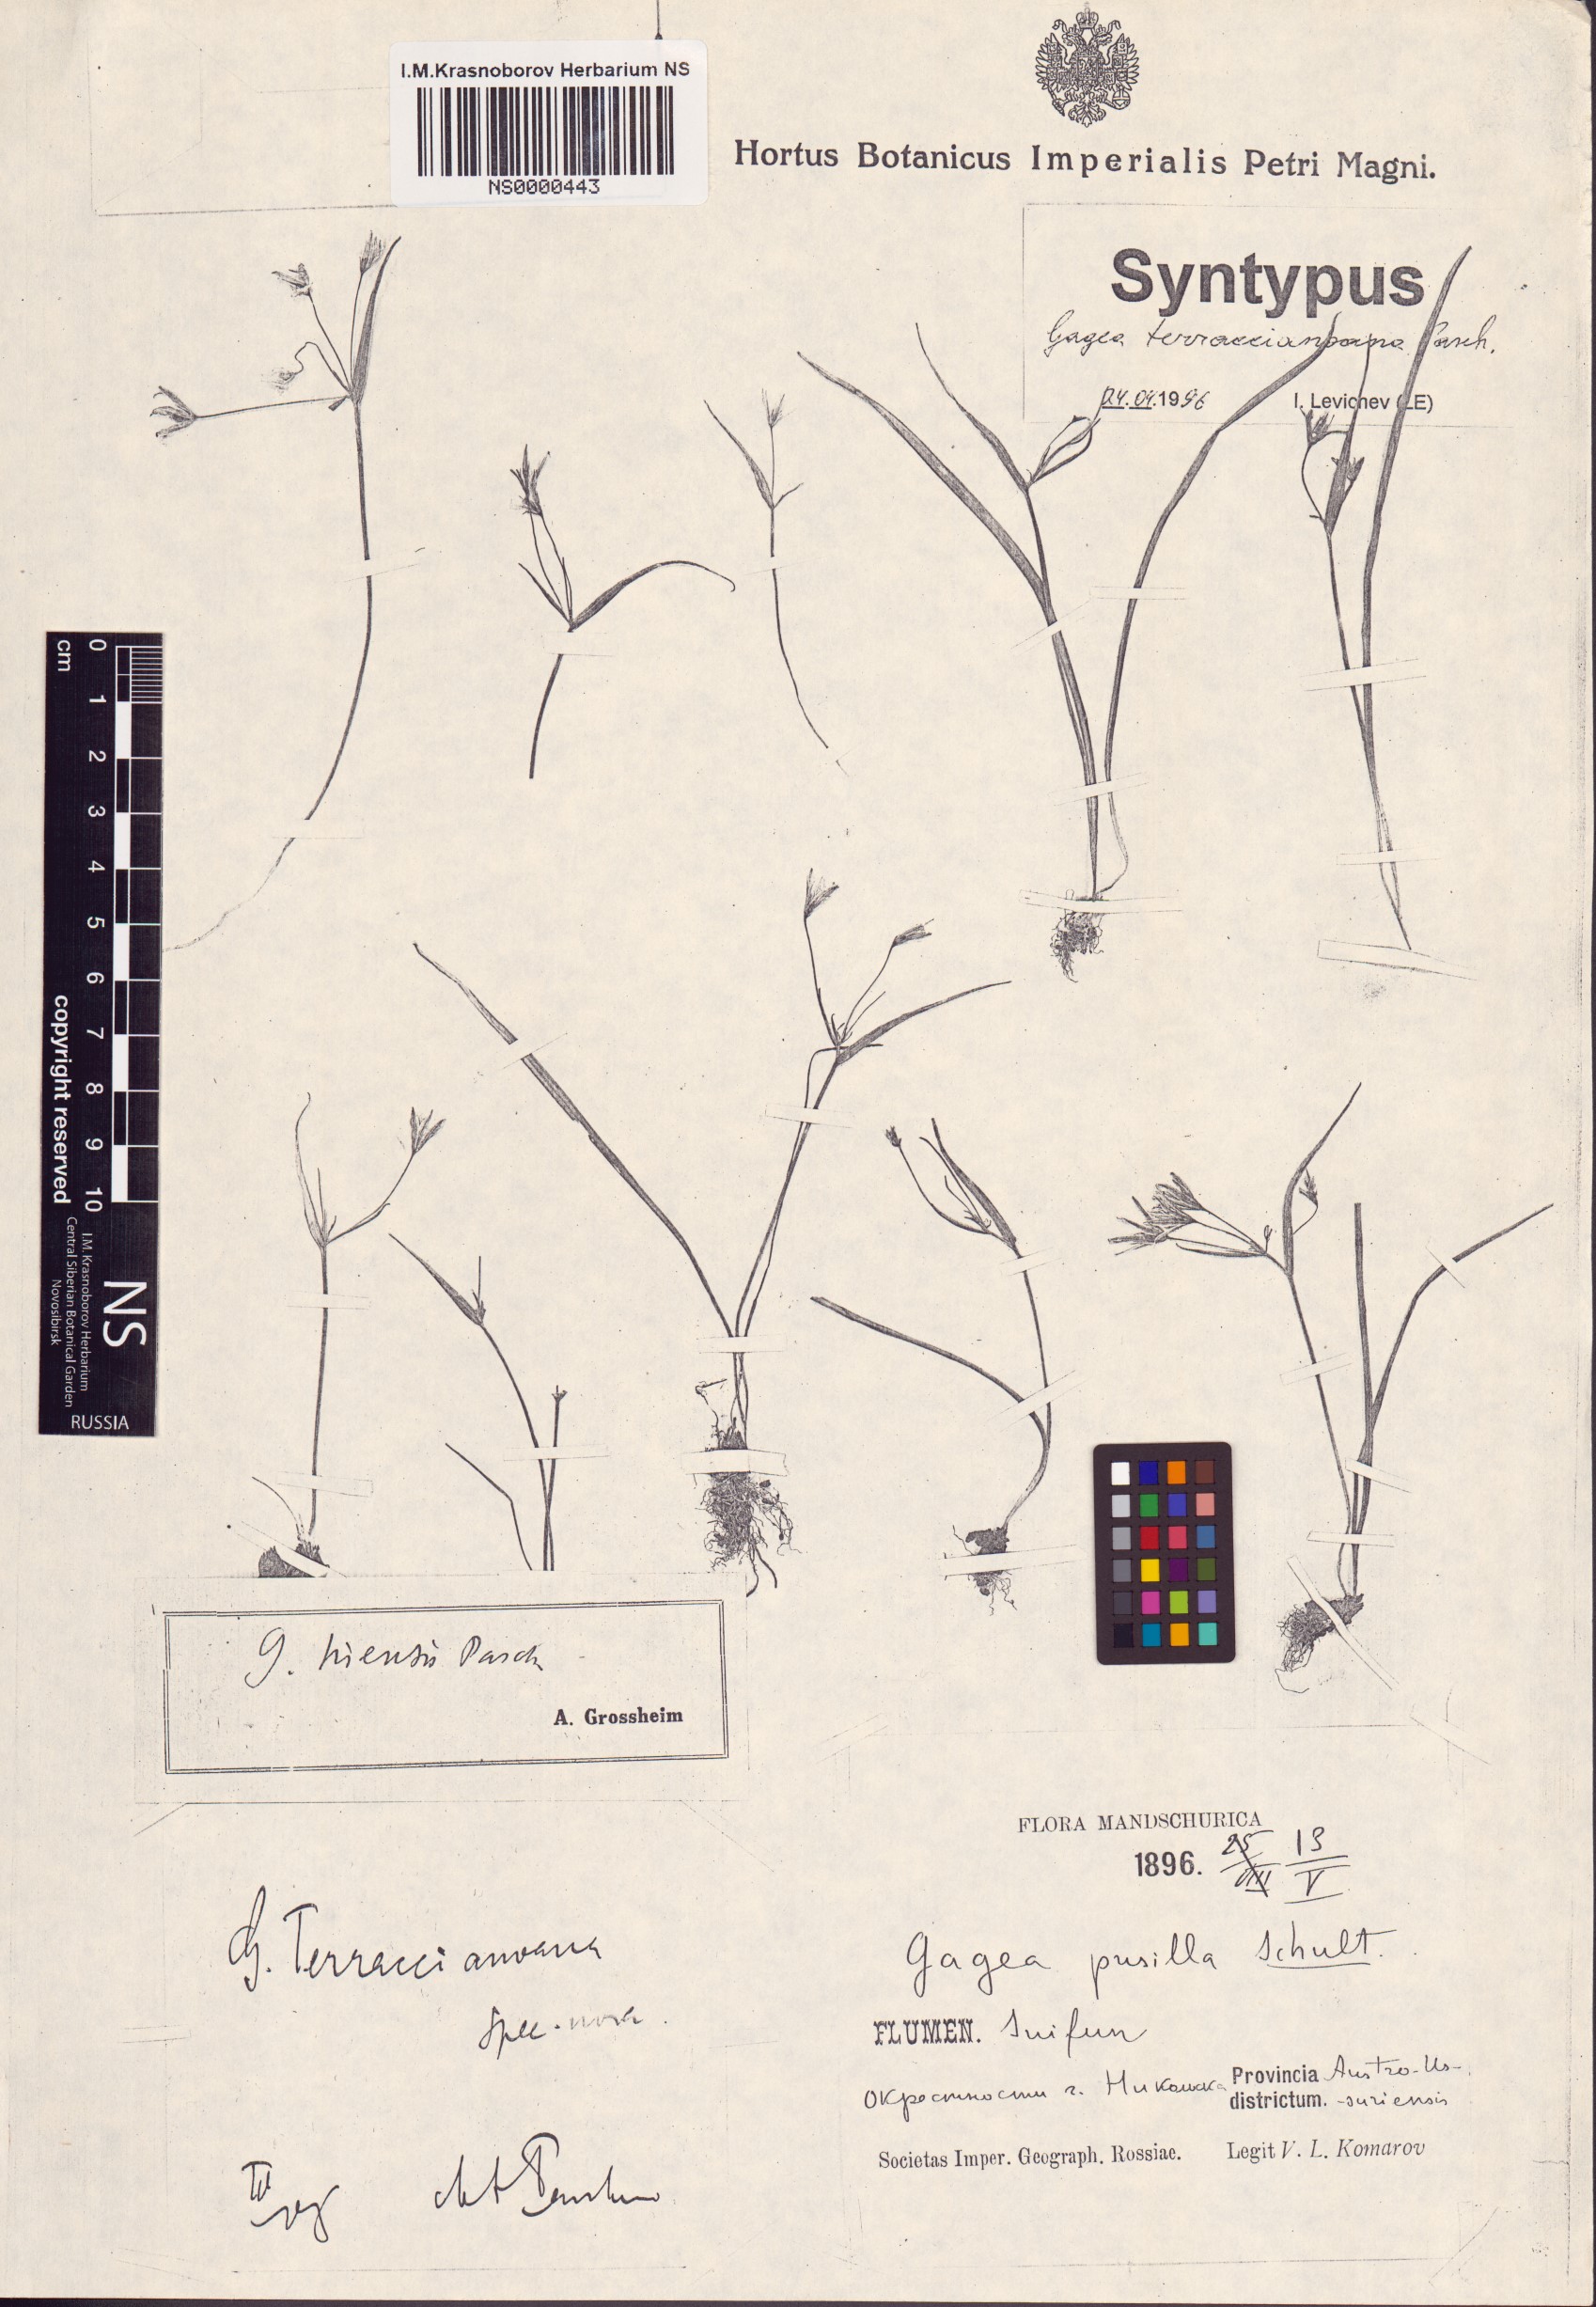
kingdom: Plantae
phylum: Tracheophyta
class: Liliopsida
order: Liliales
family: Liliaceae
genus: Gagea
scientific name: Gagea hiensis
